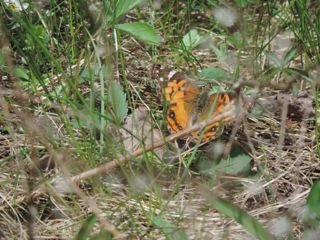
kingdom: Animalia
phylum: Arthropoda
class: Insecta
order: Lepidoptera
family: Nymphalidae
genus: Vanessa
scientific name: Vanessa virginiensis
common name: American Lady
